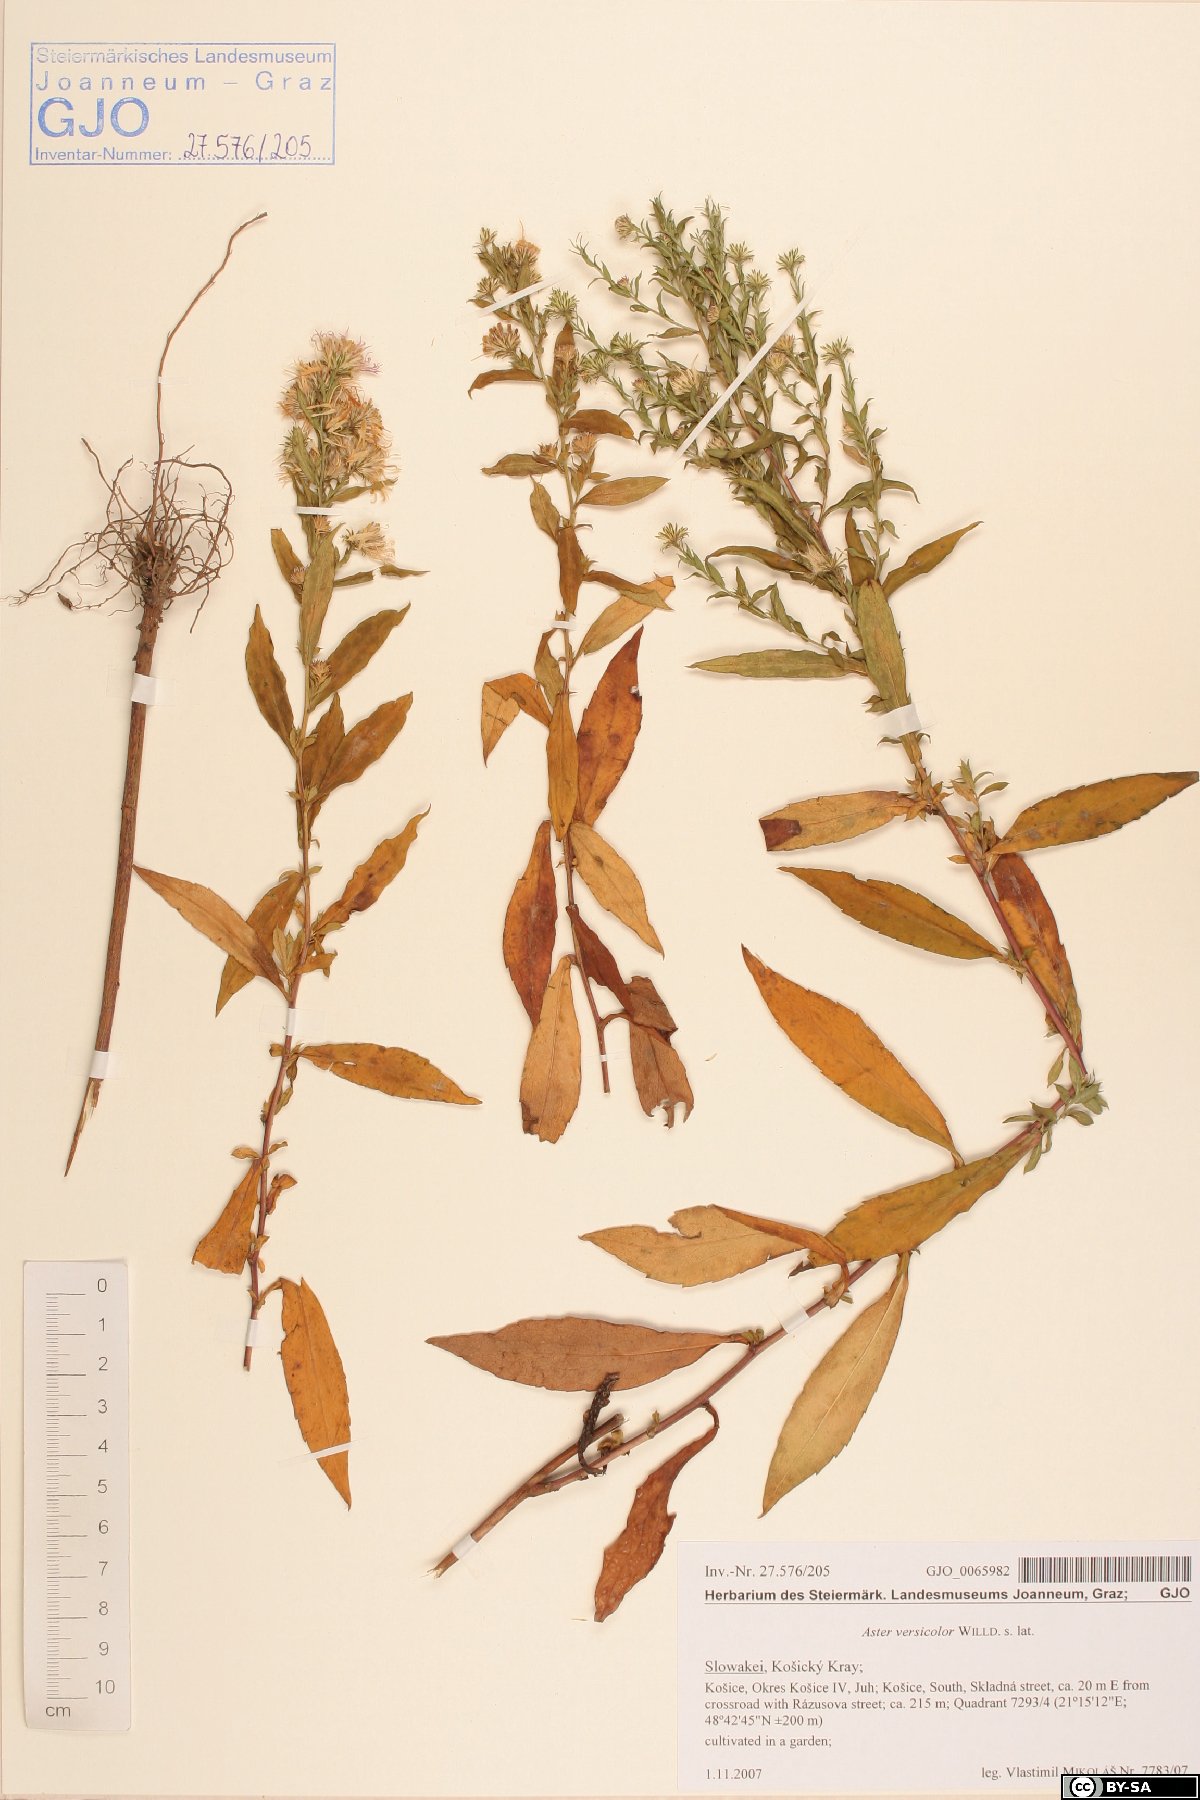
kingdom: Plantae
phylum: Tracheophyta
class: Magnoliopsida
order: Asterales
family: Asteraceae
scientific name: Asteraceae
